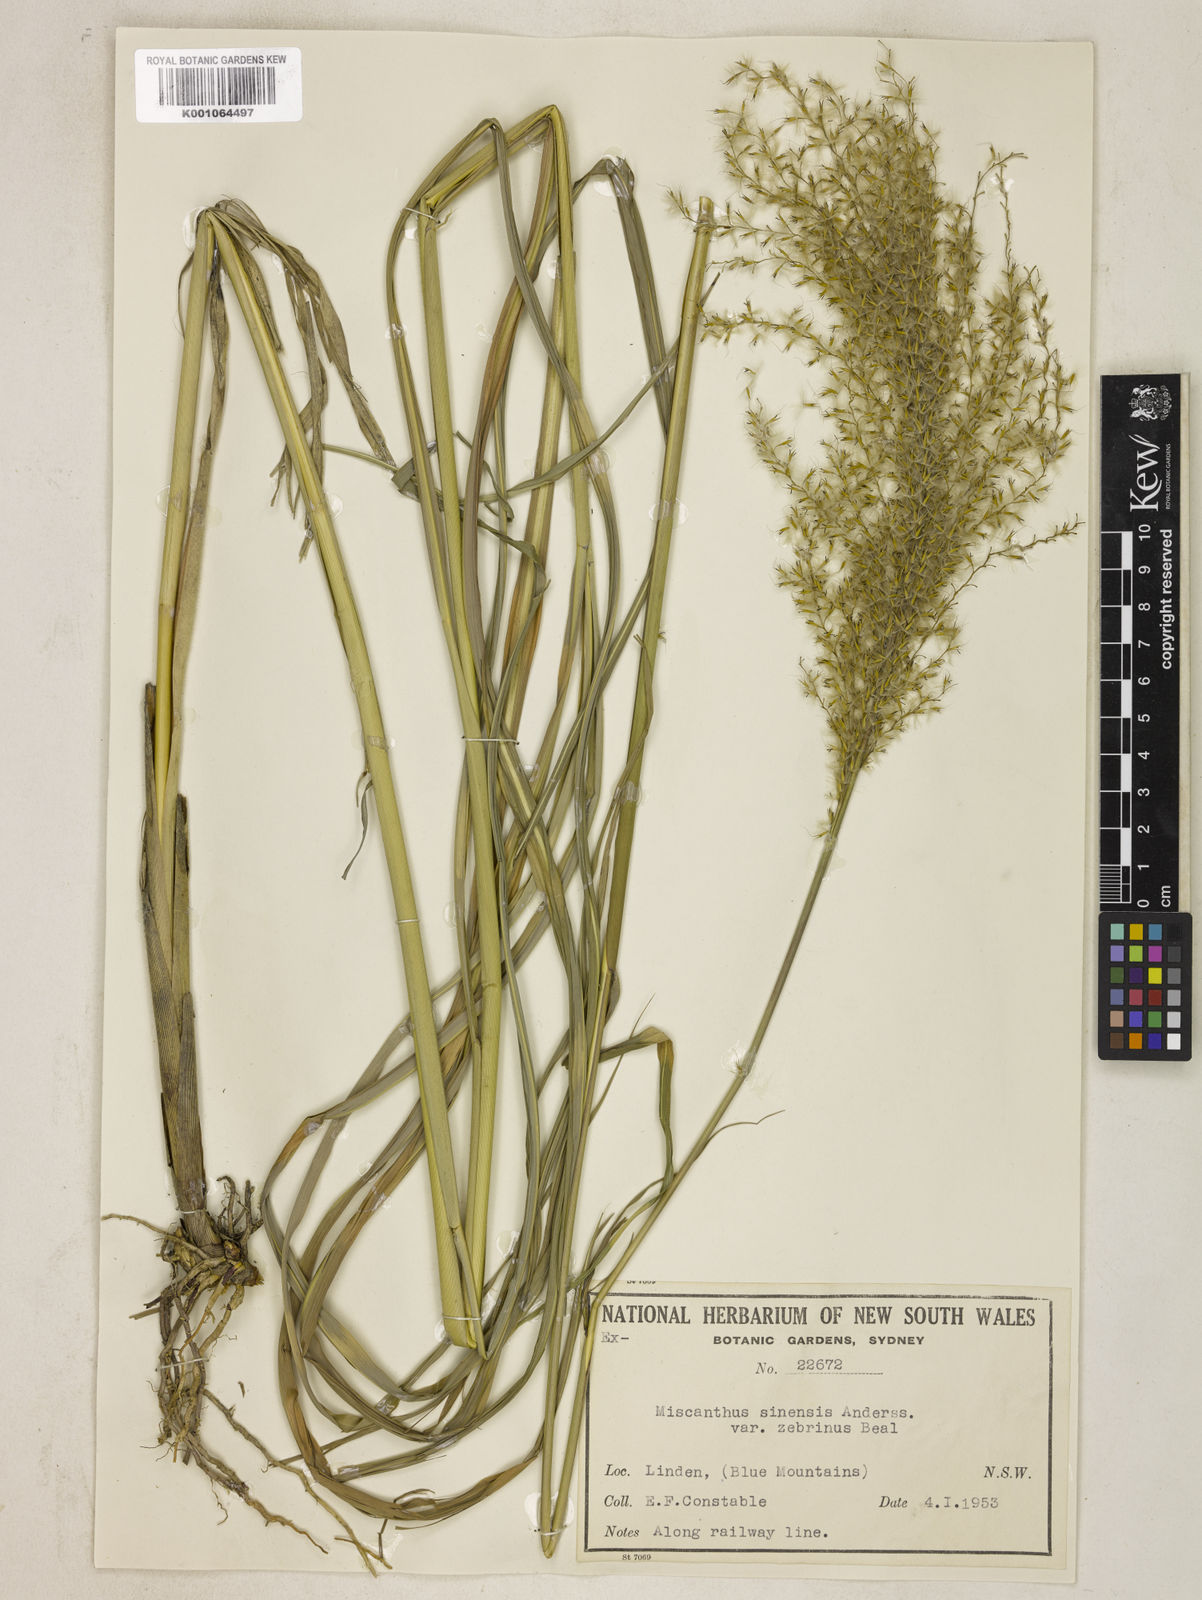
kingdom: Plantae
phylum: Tracheophyta
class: Liliopsida
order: Poales
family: Poaceae
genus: Miscanthus
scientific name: Miscanthus sinensis
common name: Chinese silvergrass
